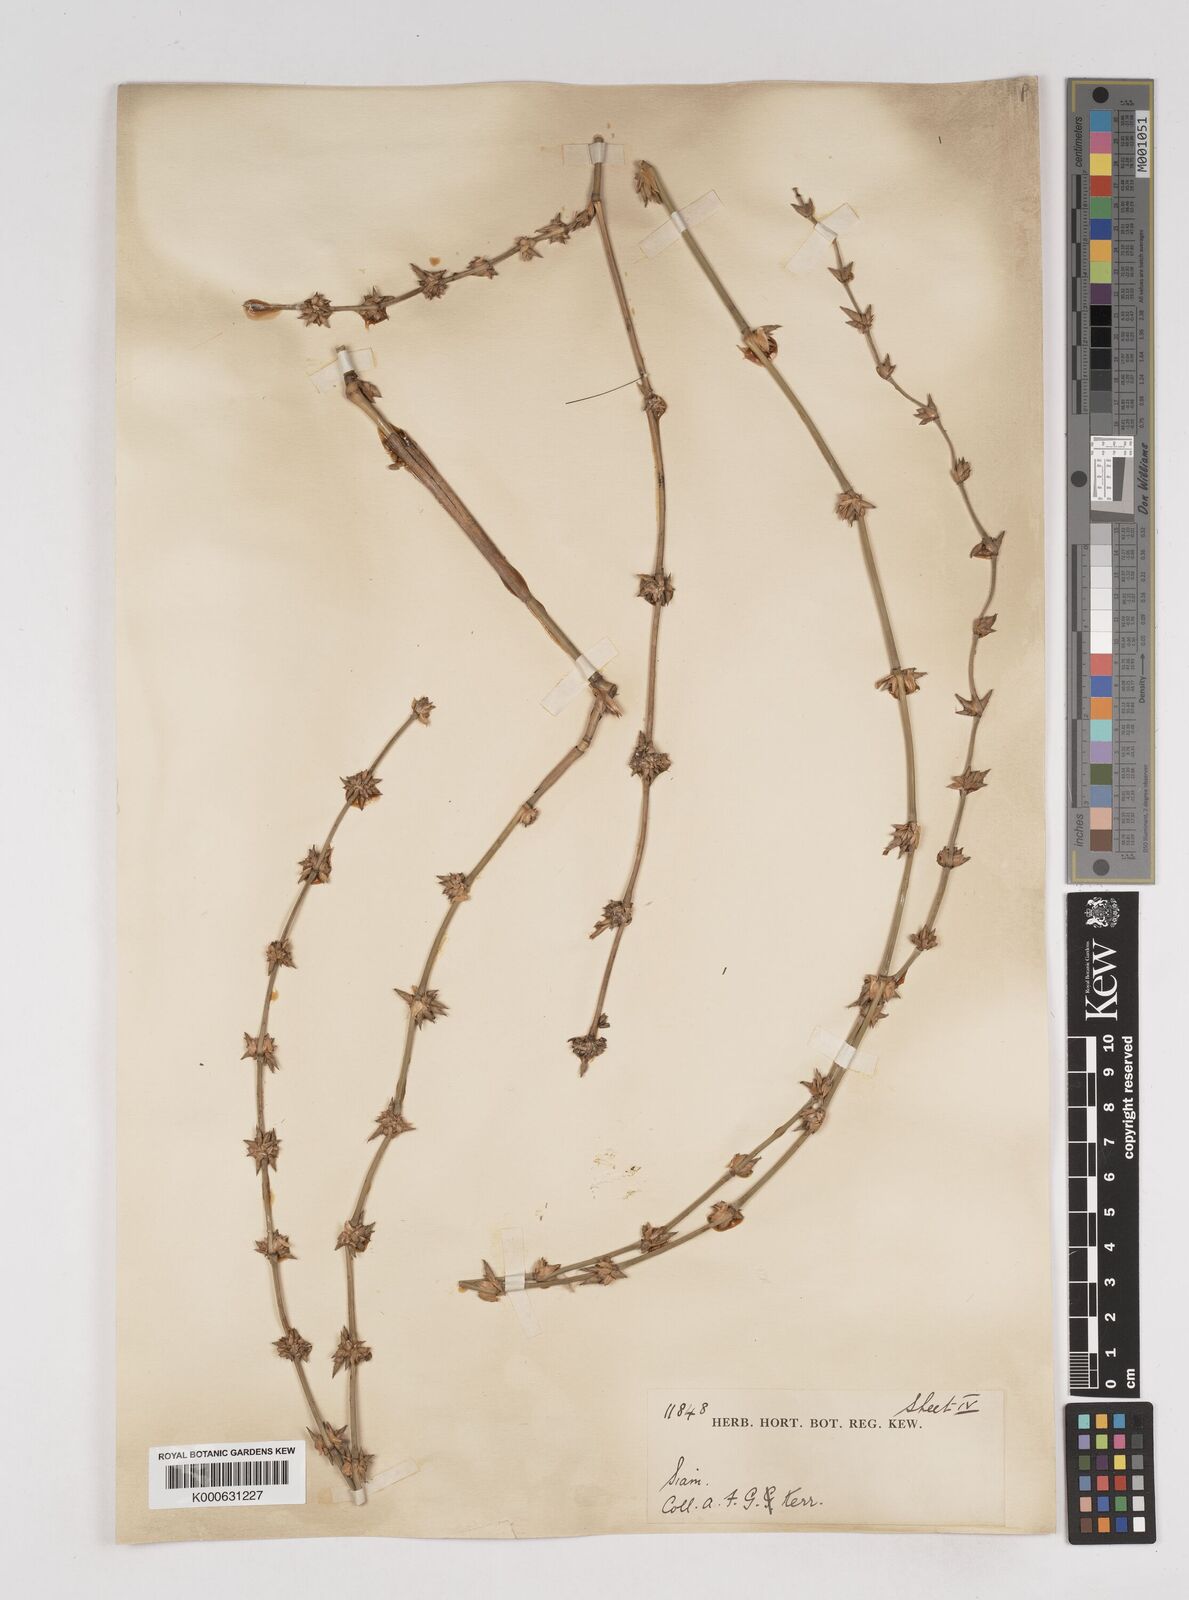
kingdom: Plantae
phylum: Tracheophyta
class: Liliopsida
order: Poales
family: Poaceae
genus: Gigantochloa
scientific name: Gigantochloa
